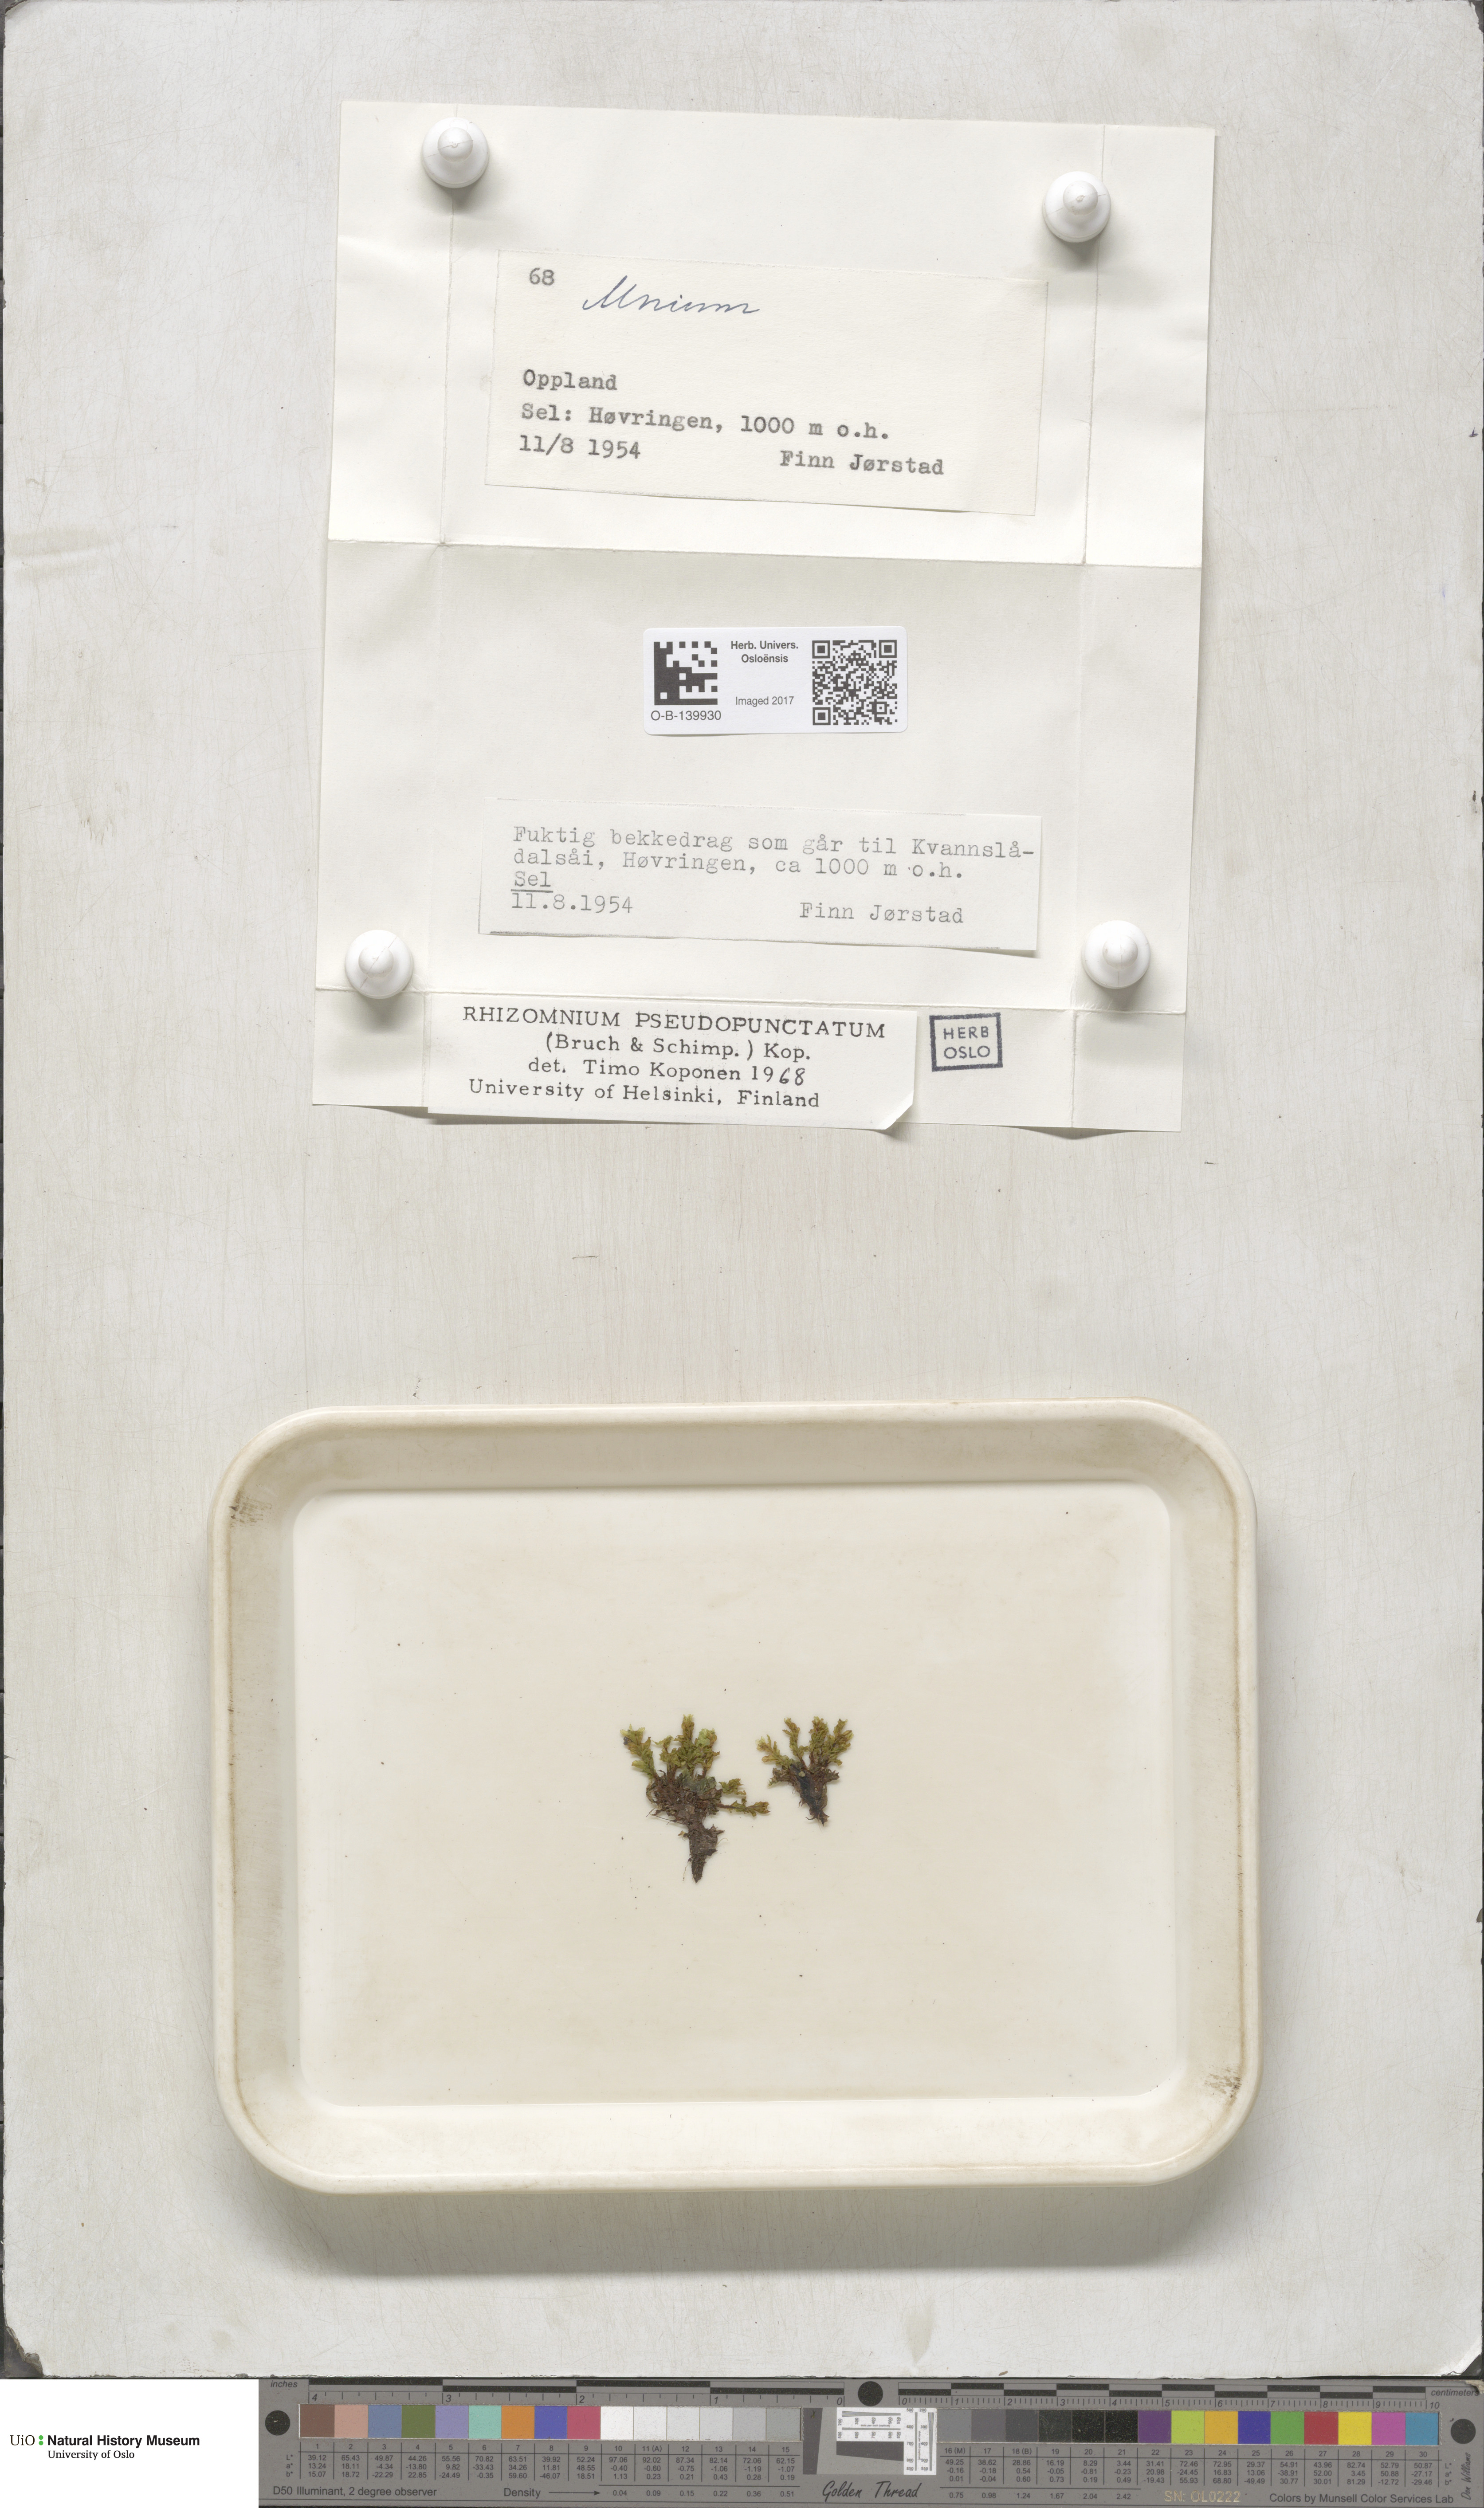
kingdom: Plantae
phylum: Bryophyta
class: Bryopsida
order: Bryales
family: Mniaceae
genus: Rhizomnium
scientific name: Rhizomnium pseudopunctatum
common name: Felted leafy moss
